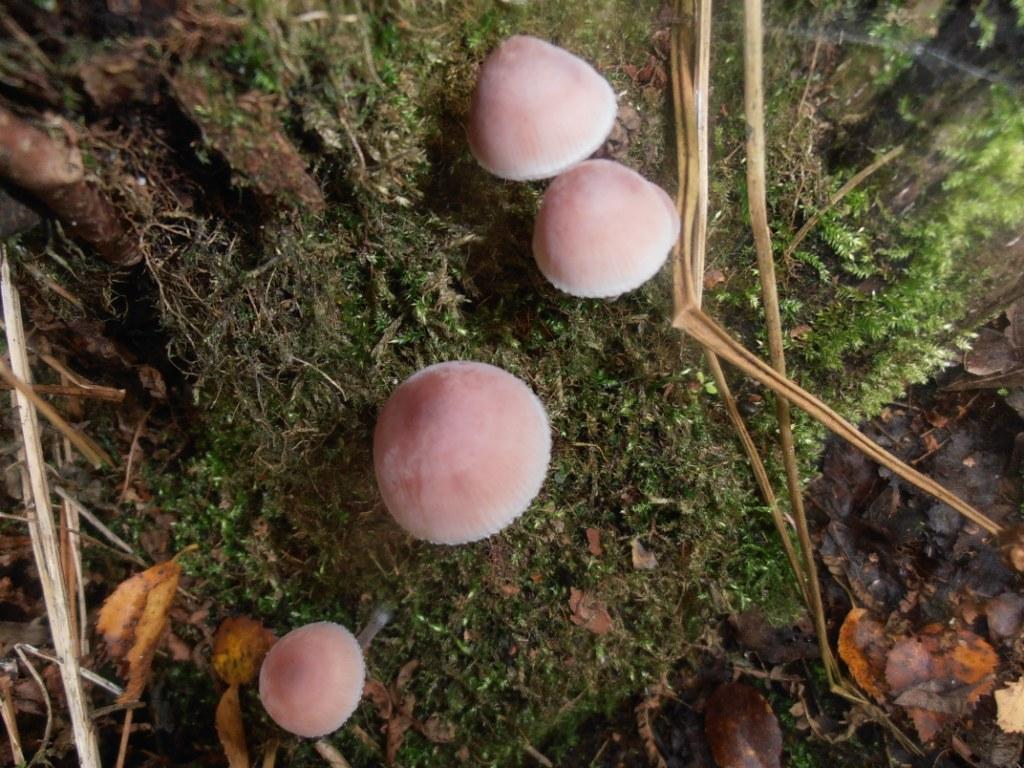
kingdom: Fungi
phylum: Basidiomycota
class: Agaricomycetes
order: Agaricales
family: Mycenaceae
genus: Mycena
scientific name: Mycena haematopus
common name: blødende huesvamp
